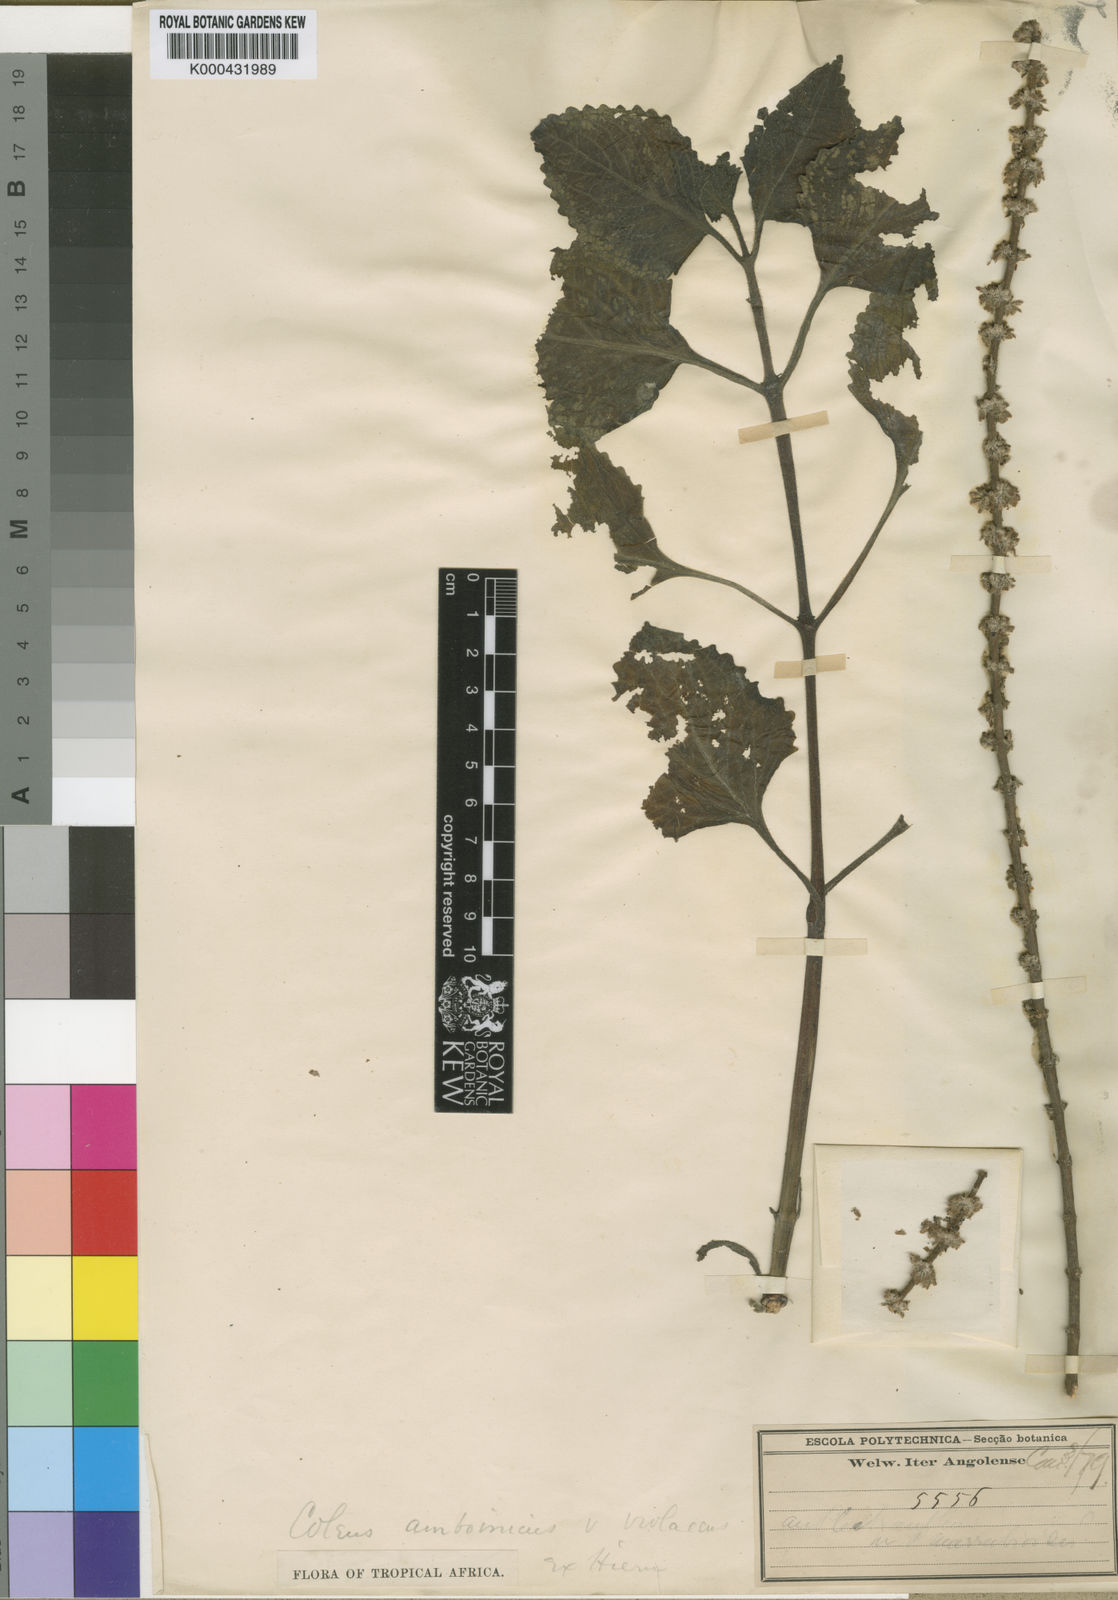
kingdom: Plantae
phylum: Tracheophyta
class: Magnoliopsida
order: Lamiales
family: Lamiaceae
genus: Coleus
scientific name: Coleus amboinicus
